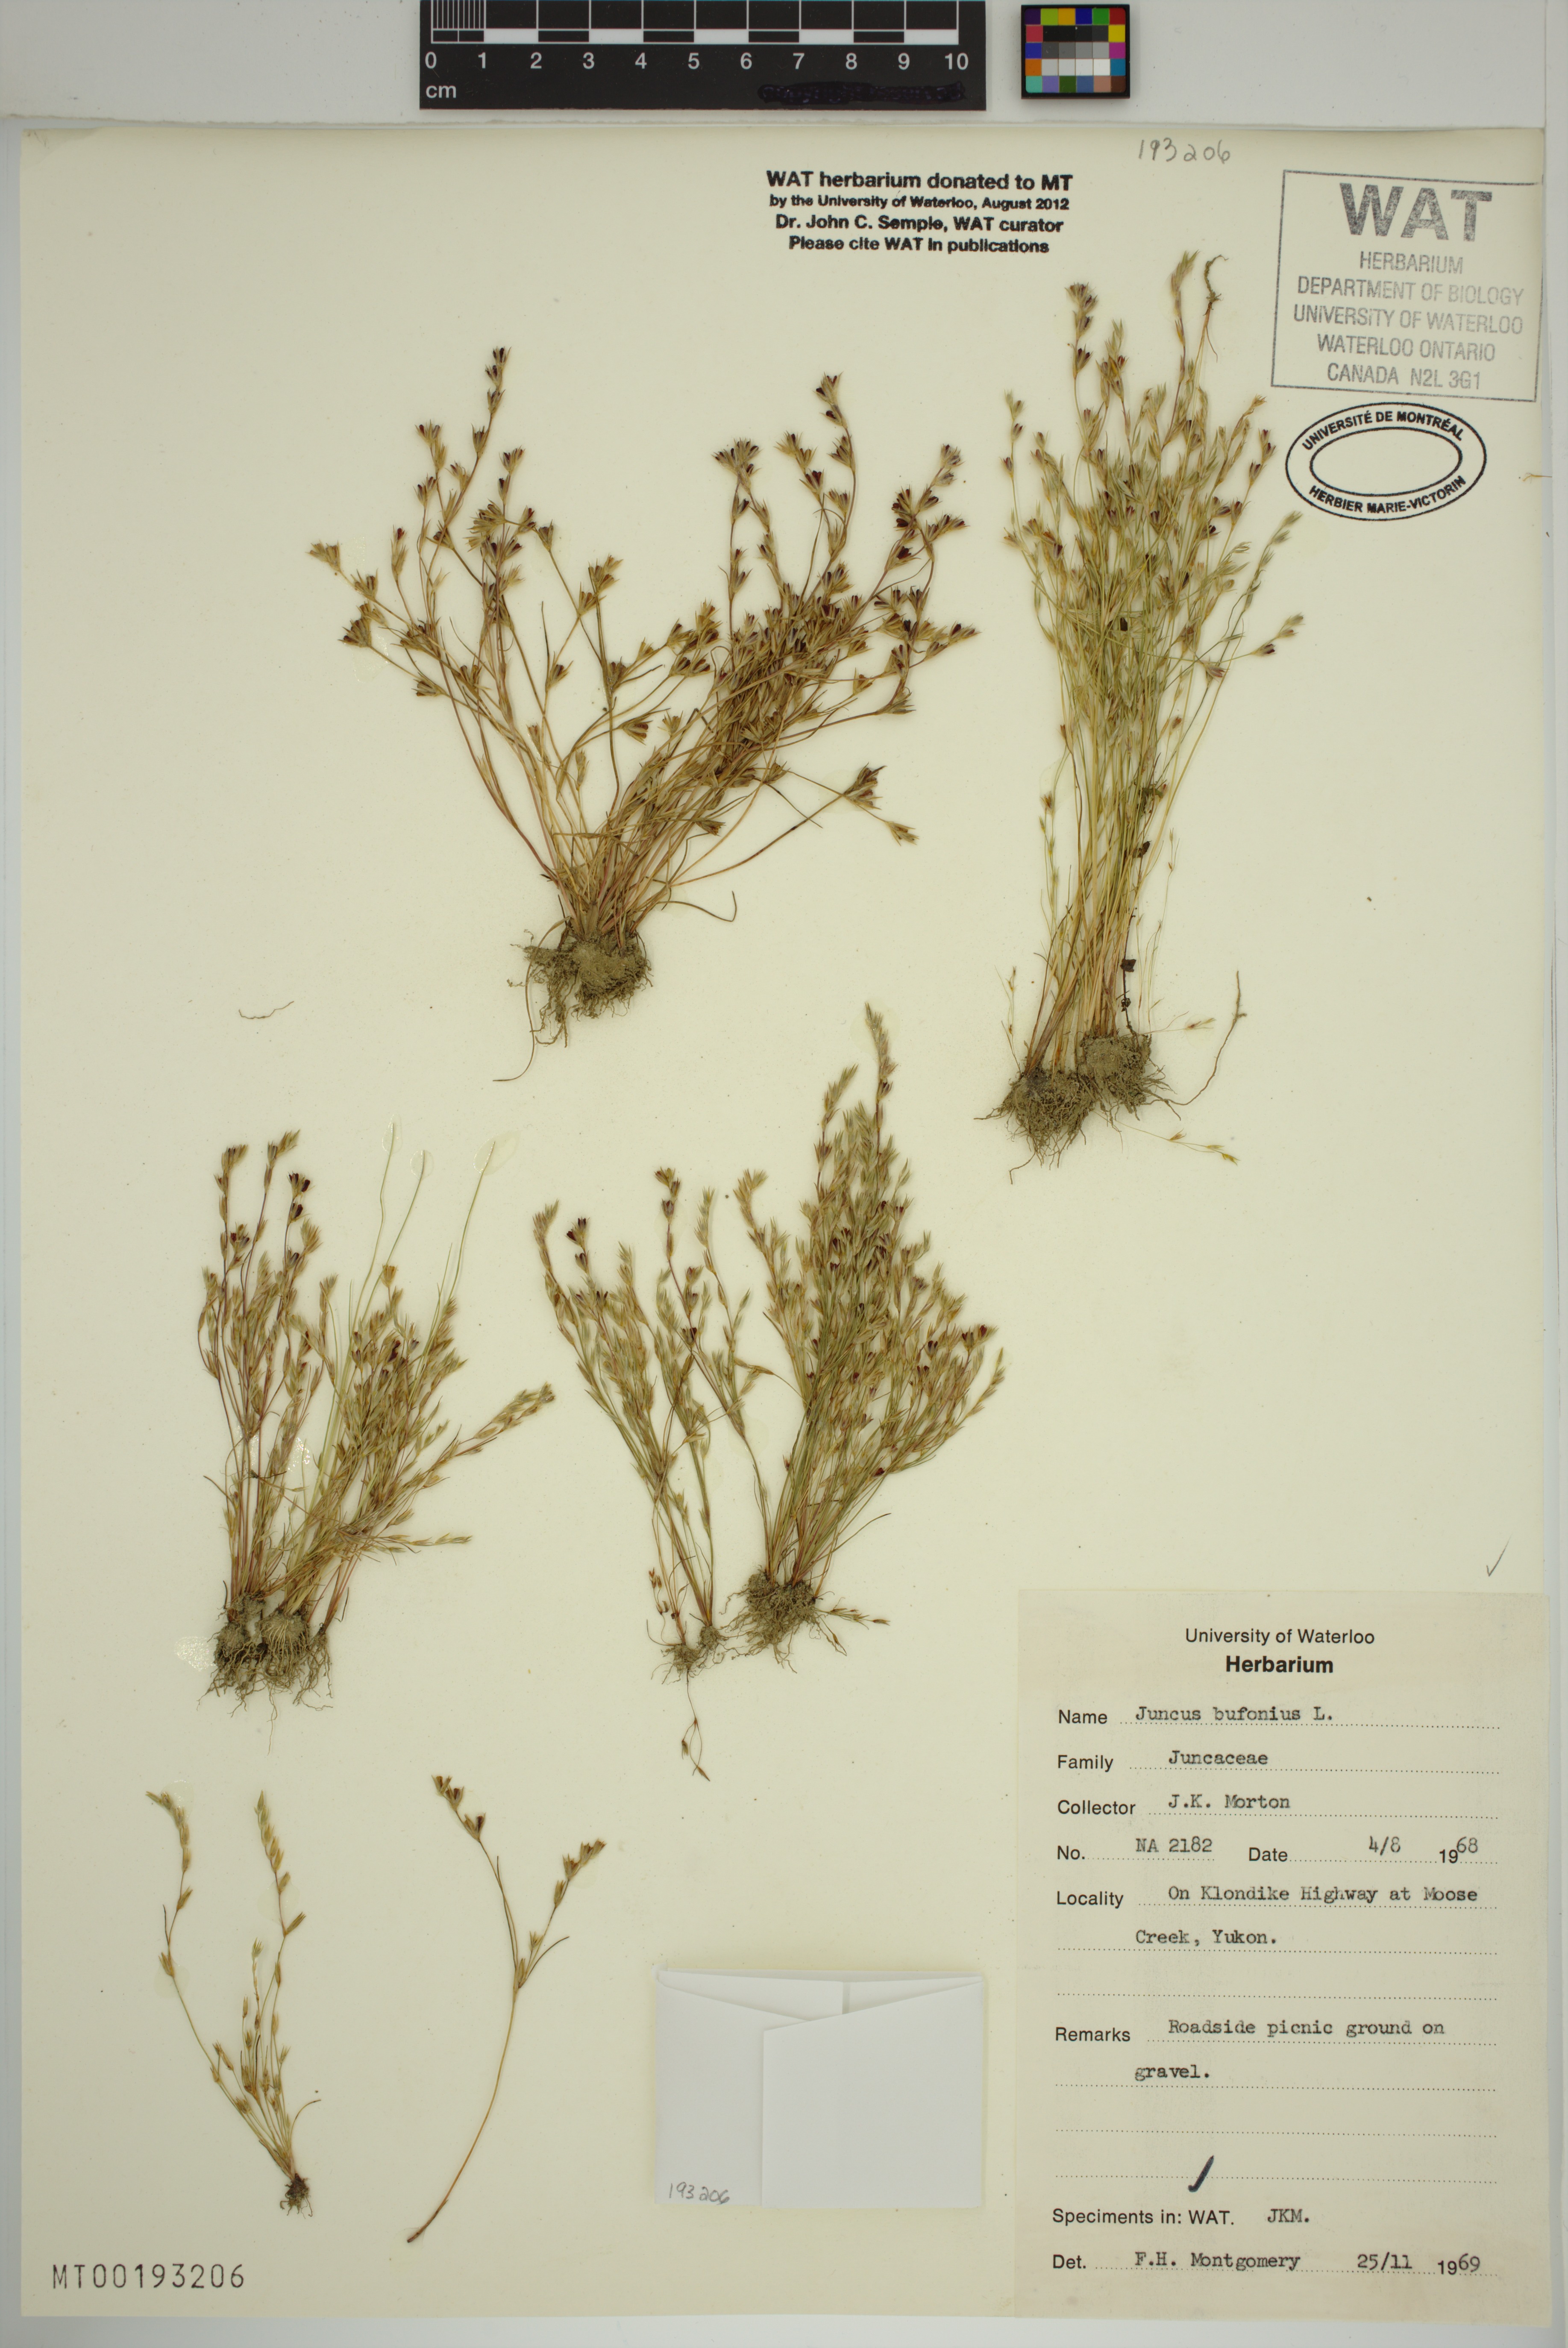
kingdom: Plantae
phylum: Tracheophyta
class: Liliopsida
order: Poales
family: Juncaceae
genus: Juncus
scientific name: Juncus bufonius
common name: Toad rush
